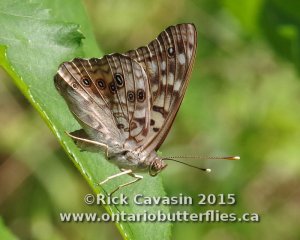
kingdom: Animalia
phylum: Arthropoda
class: Insecta
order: Lepidoptera
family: Nymphalidae
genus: Asterocampa
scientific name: Asterocampa celtis
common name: Hackberry Emperor
